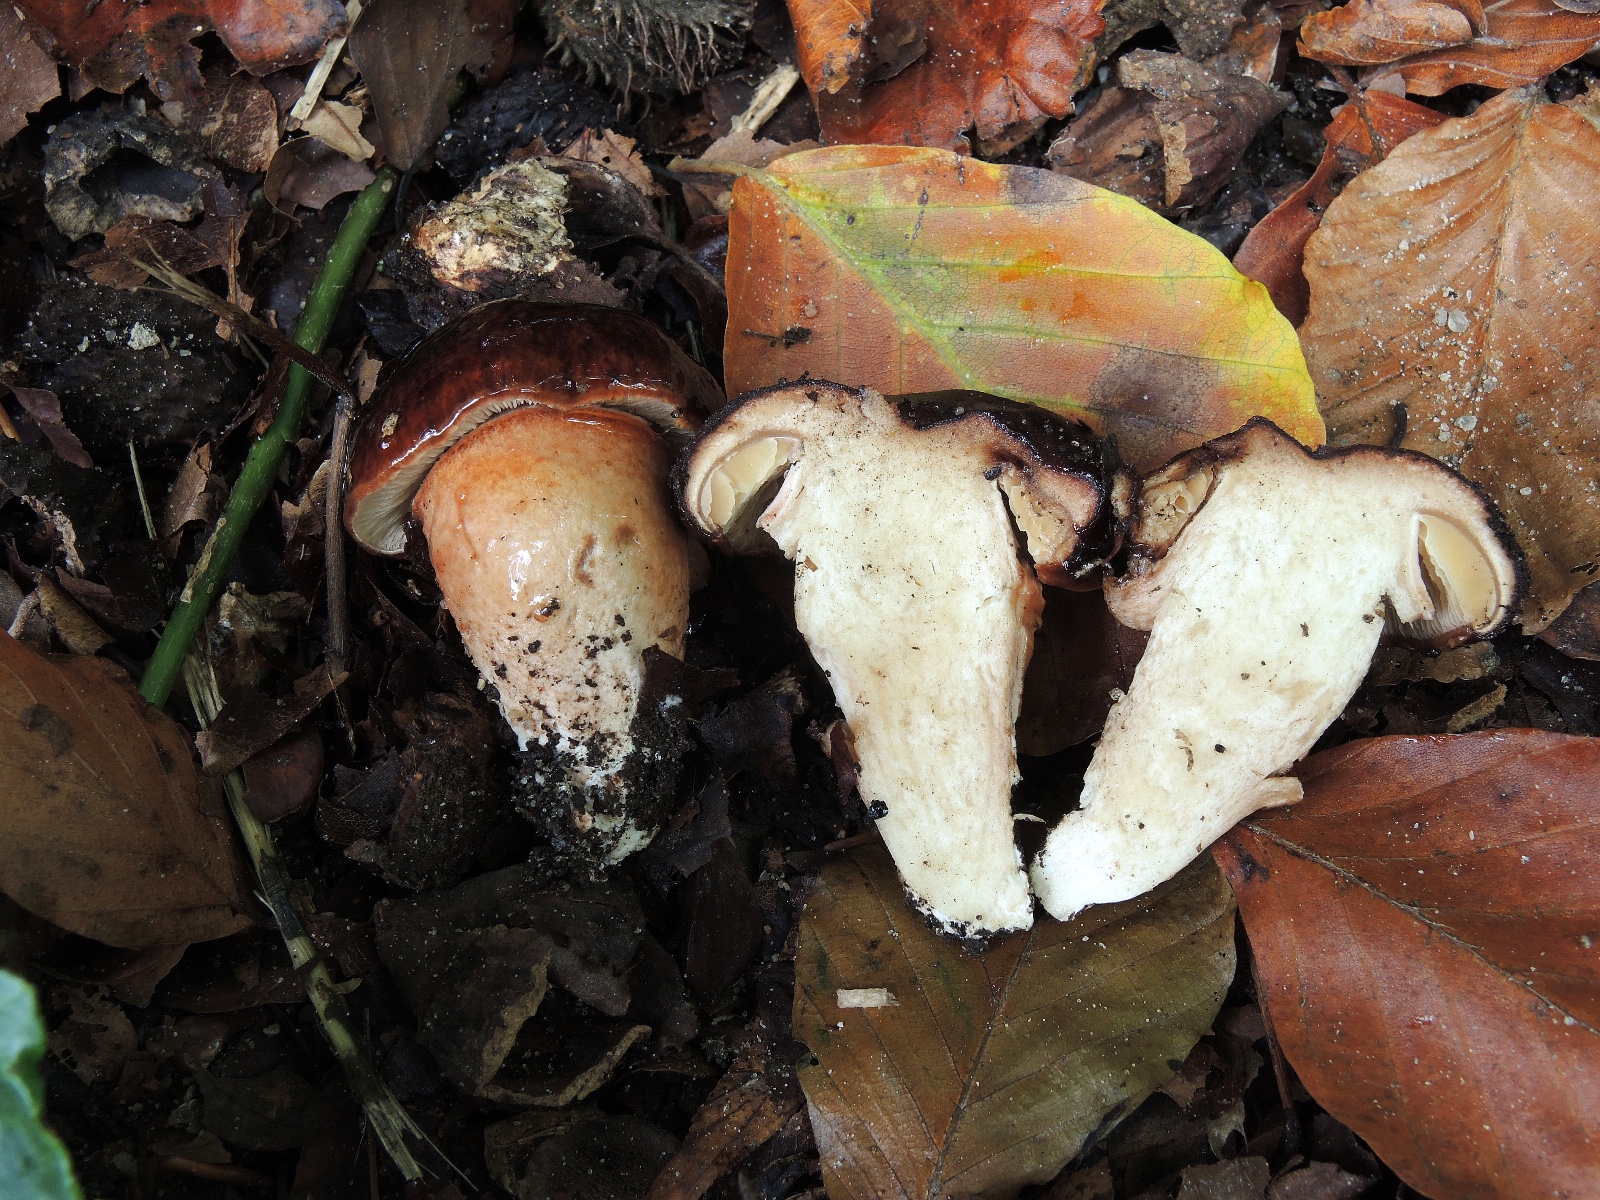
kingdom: Fungi
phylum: Basidiomycota
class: Agaricomycetes
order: Agaricales
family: Tricholomataceae
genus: Tricholoma
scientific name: Tricholoma
